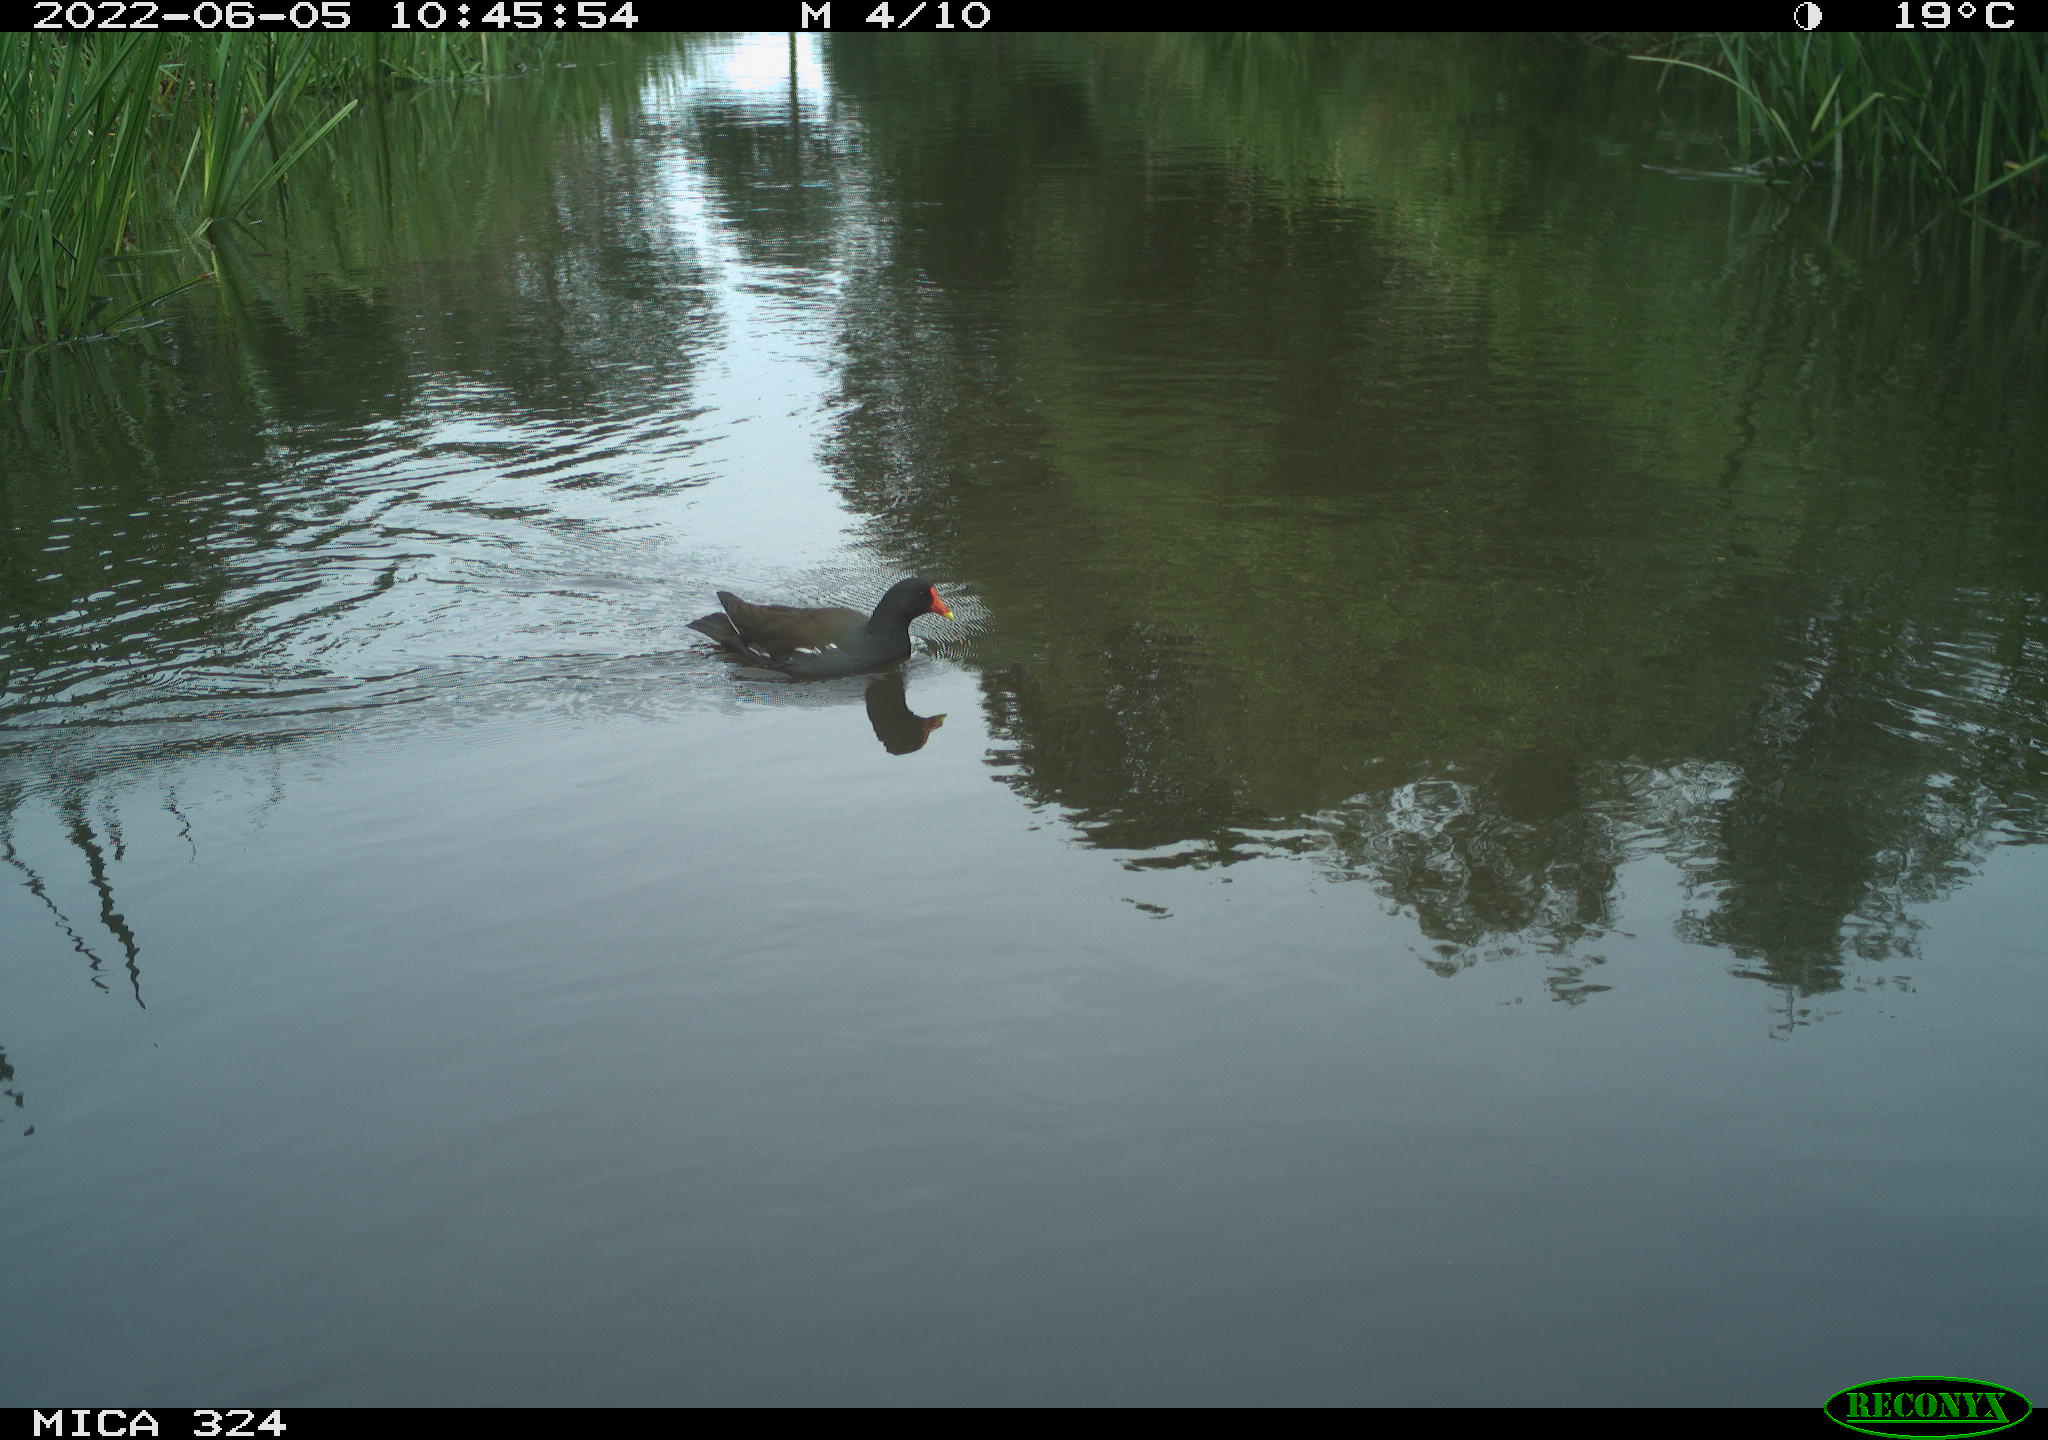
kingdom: Animalia
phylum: Chordata
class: Aves
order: Gruiformes
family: Rallidae
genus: Gallinula
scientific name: Gallinula chloropus
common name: Common moorhen
